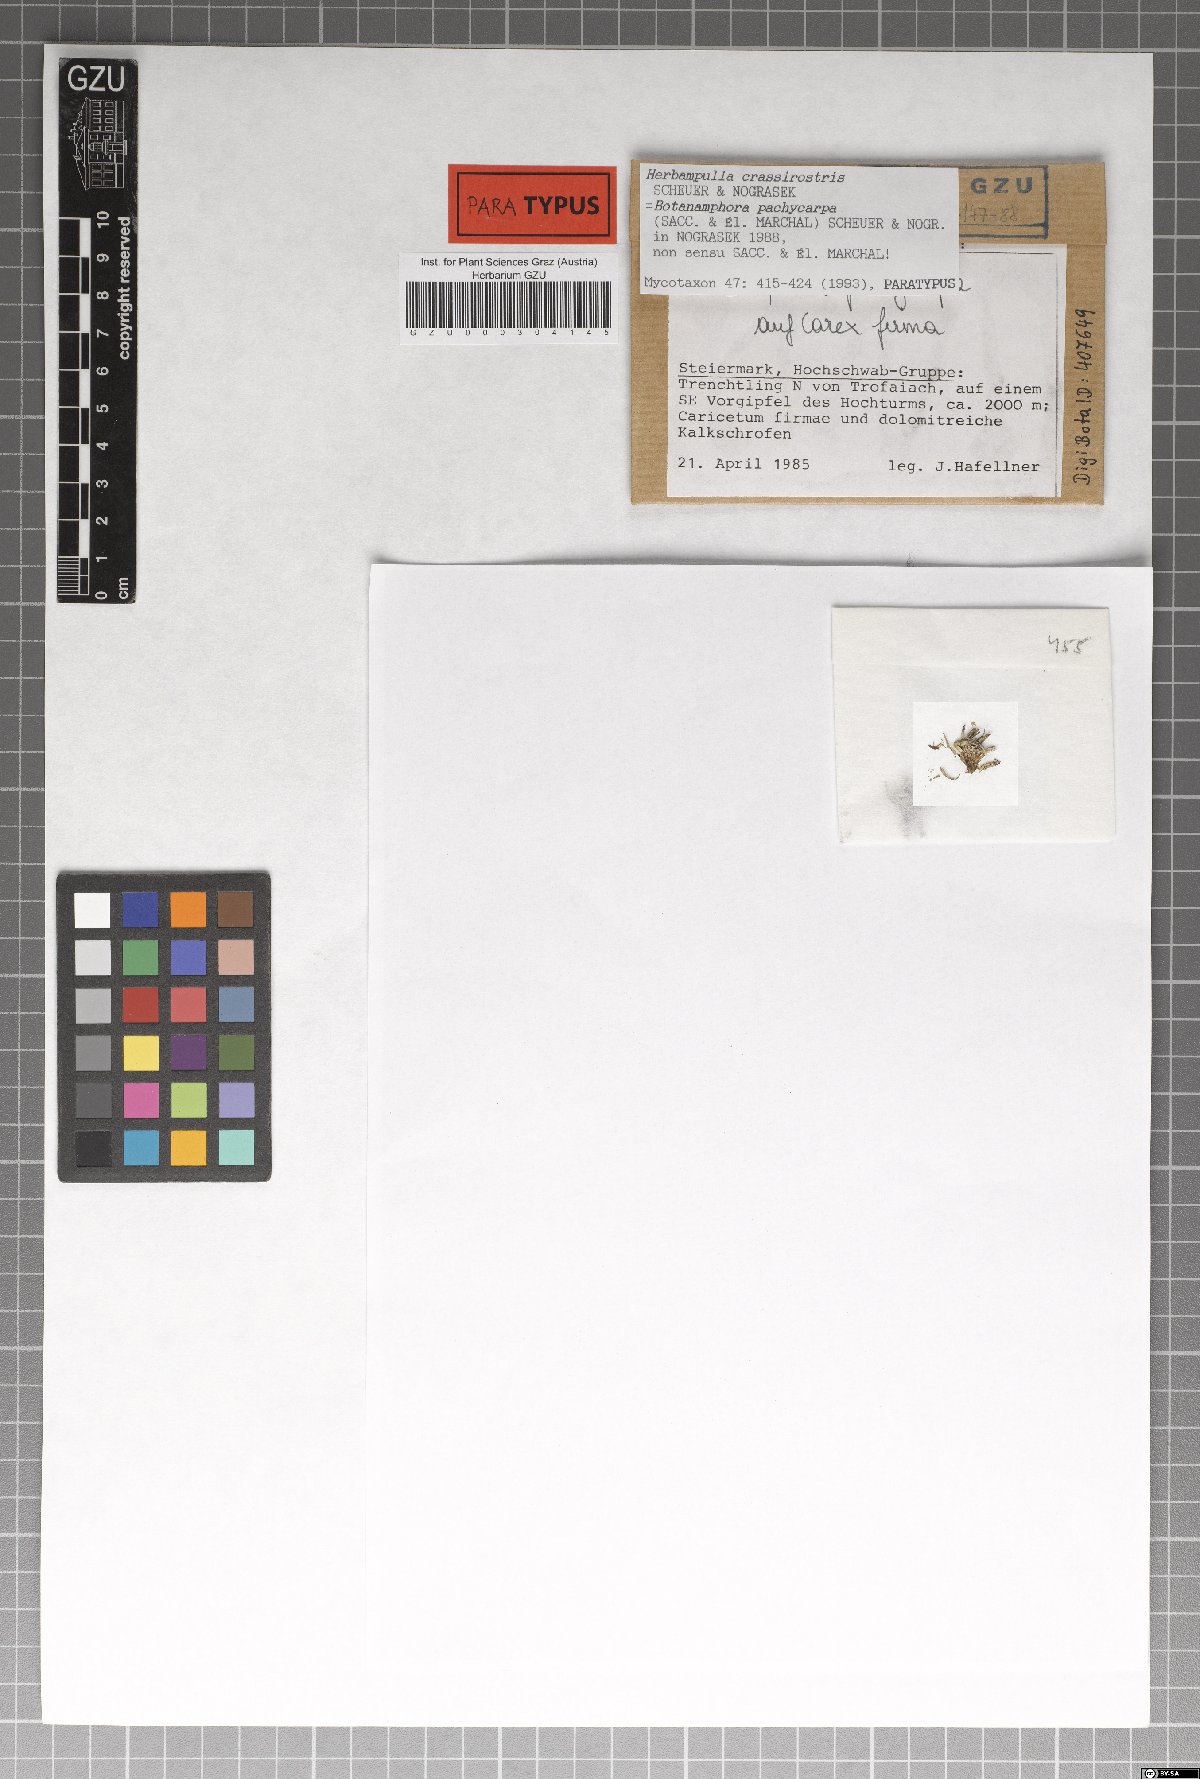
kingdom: Fungi
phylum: Ascomycota
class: Sordariomycetes
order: Magnaporthales
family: Magnaporthaceae
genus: Herbampulla
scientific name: Herbampulla crassirostris
